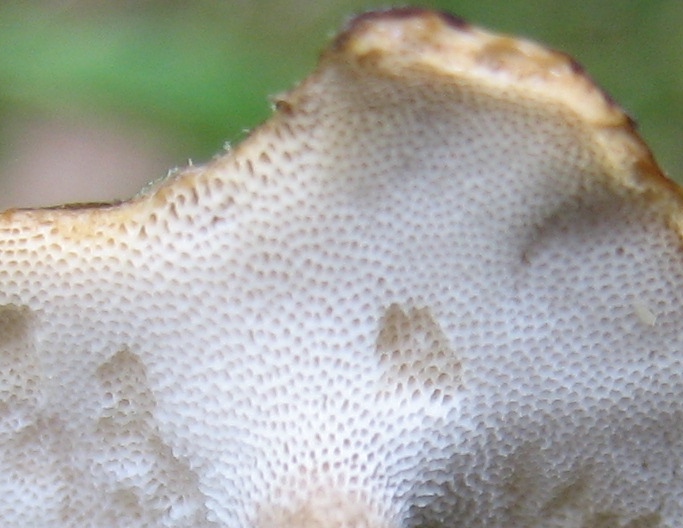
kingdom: Fungi
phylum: Basidiomycota
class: Agaricomycetes
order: Polyporales
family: Polyporaceae
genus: Lentinus
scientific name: Lentinus brumalis
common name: vinter-stilkporesvamp
